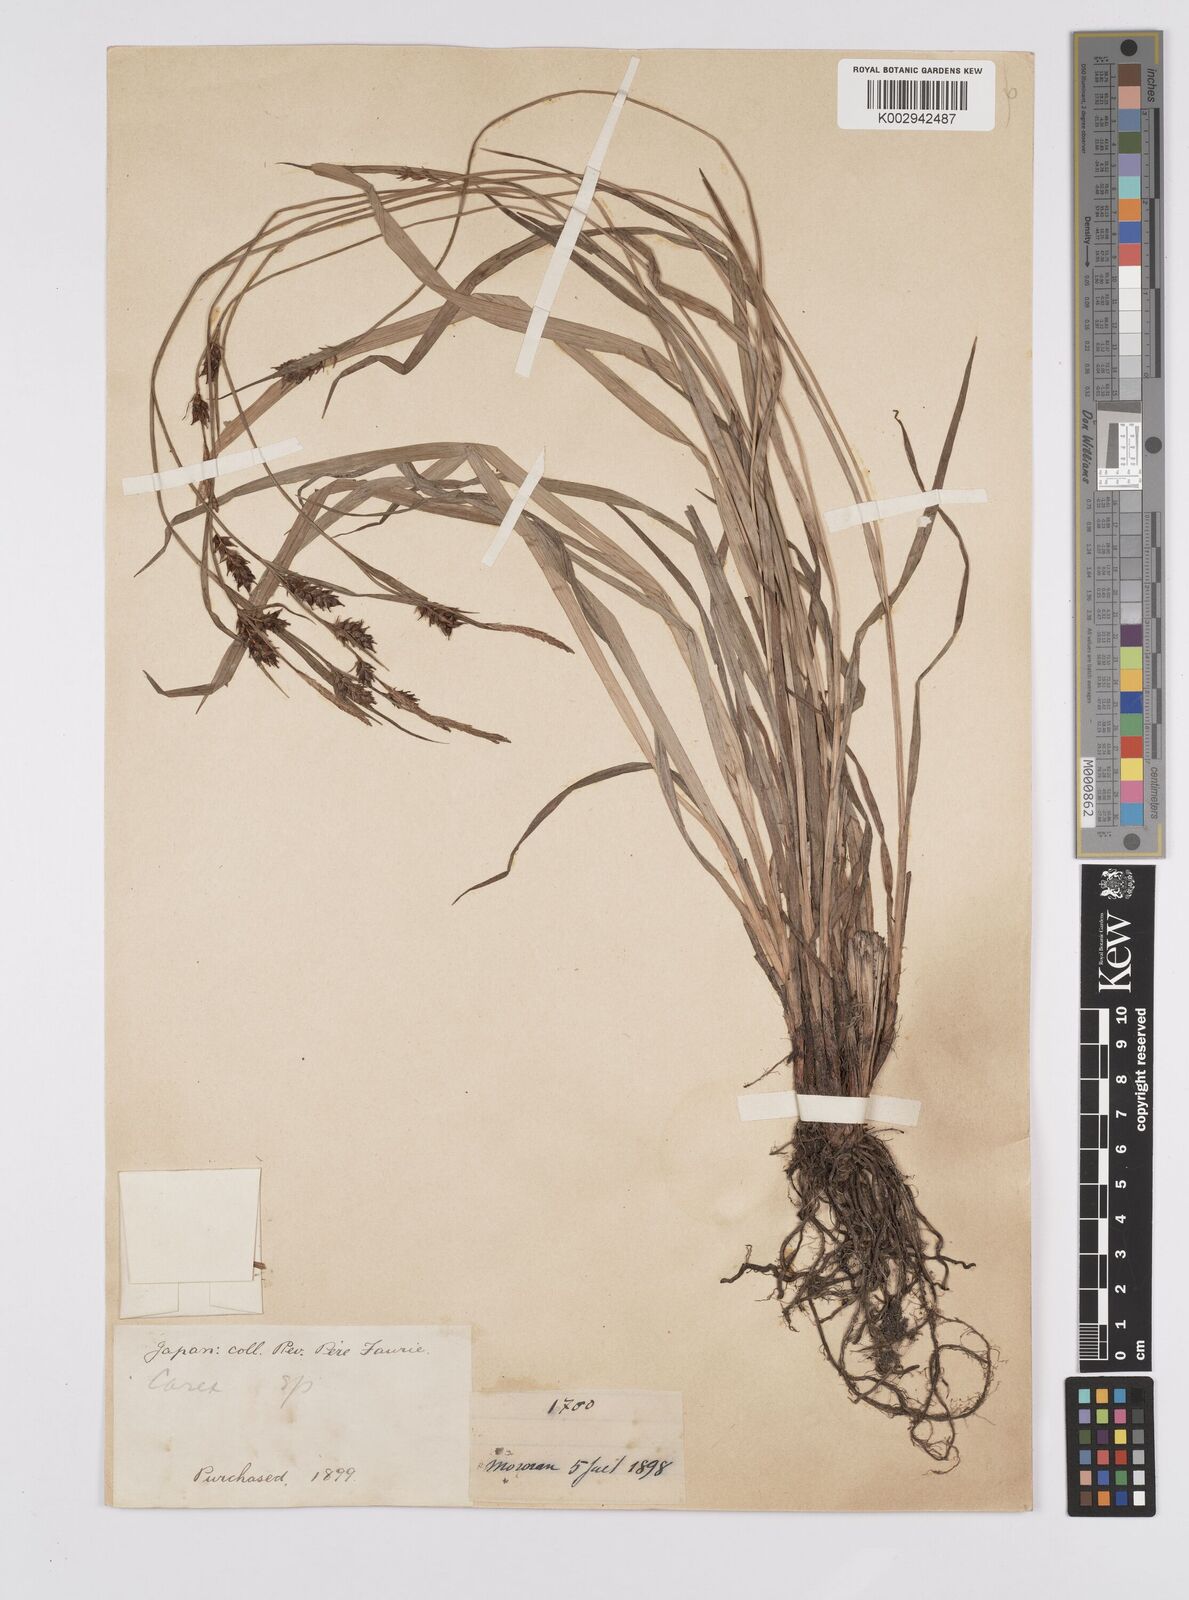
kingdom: Plantae
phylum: Tracheophyta
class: Liliopsida
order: Poales
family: Cyperaceae
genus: Carex
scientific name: Carex latisquamea
